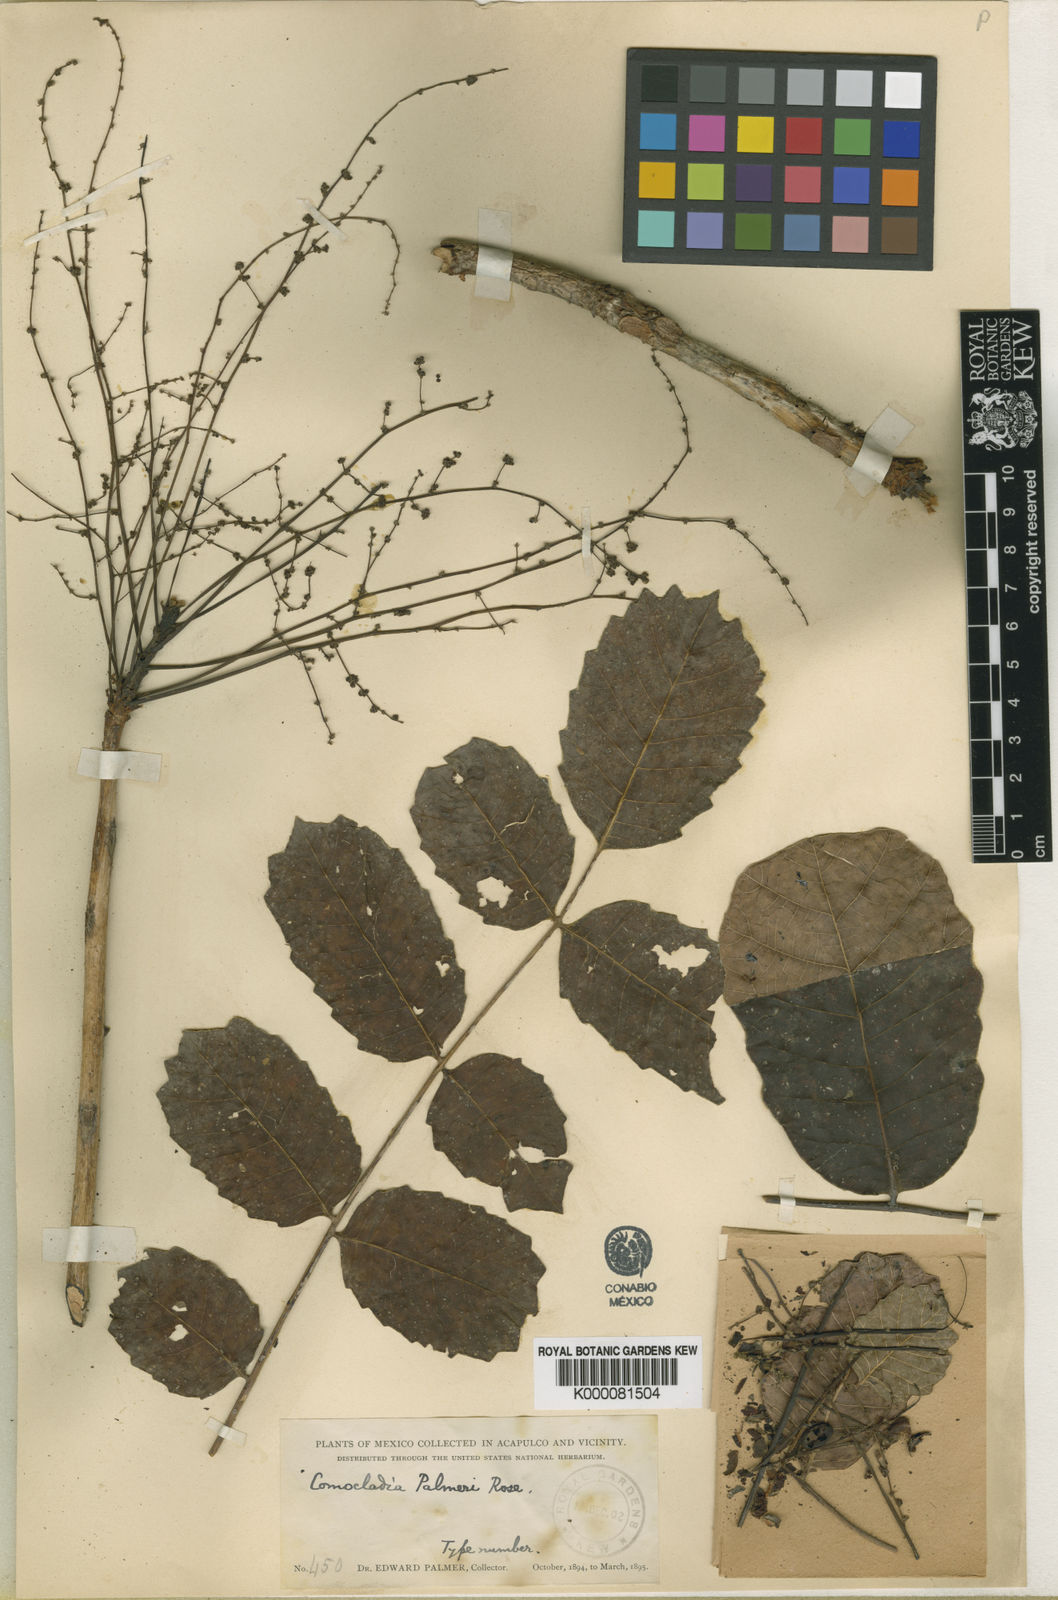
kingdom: Plantae
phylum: Tracheophyta
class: Magnoliopsida
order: Sapindales
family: Anacardiaceae
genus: Comocladia
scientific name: Comocladia palmeri
